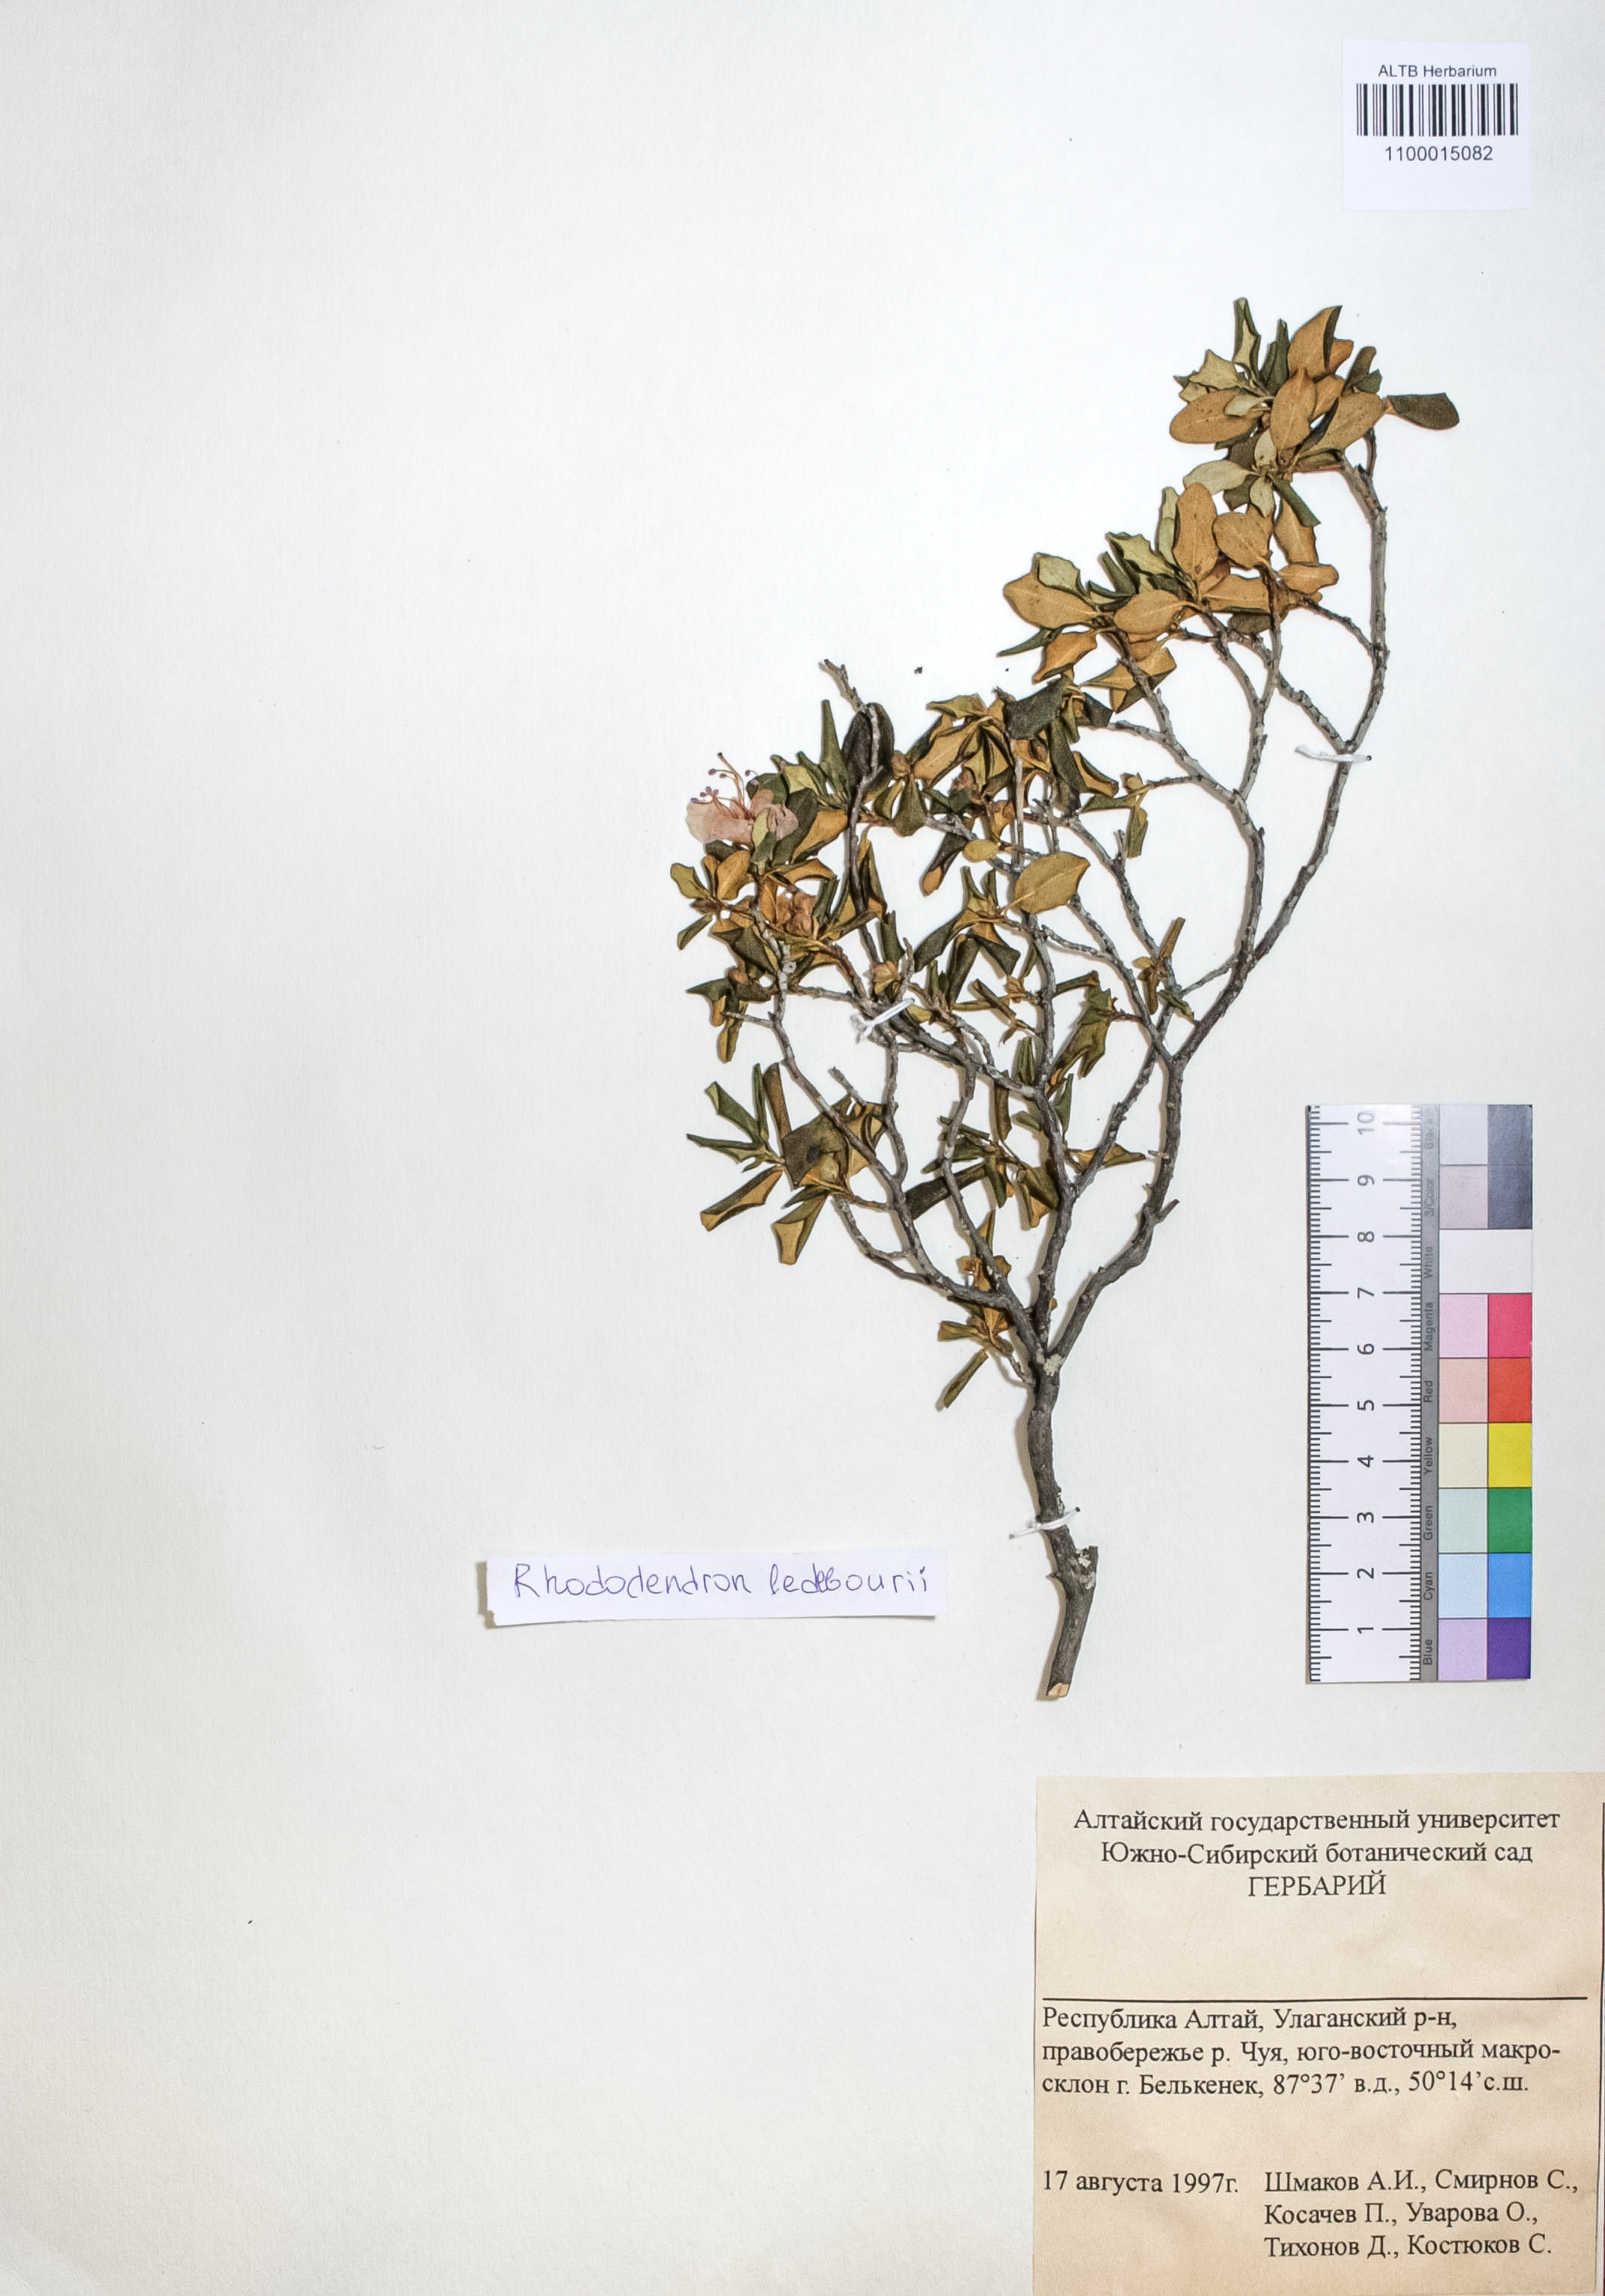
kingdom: Plantae
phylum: Tracheophyta
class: Magnoliopsida
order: Ericales
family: Ericaceae
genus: Rhododendron
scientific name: Rhododendron dauricum
